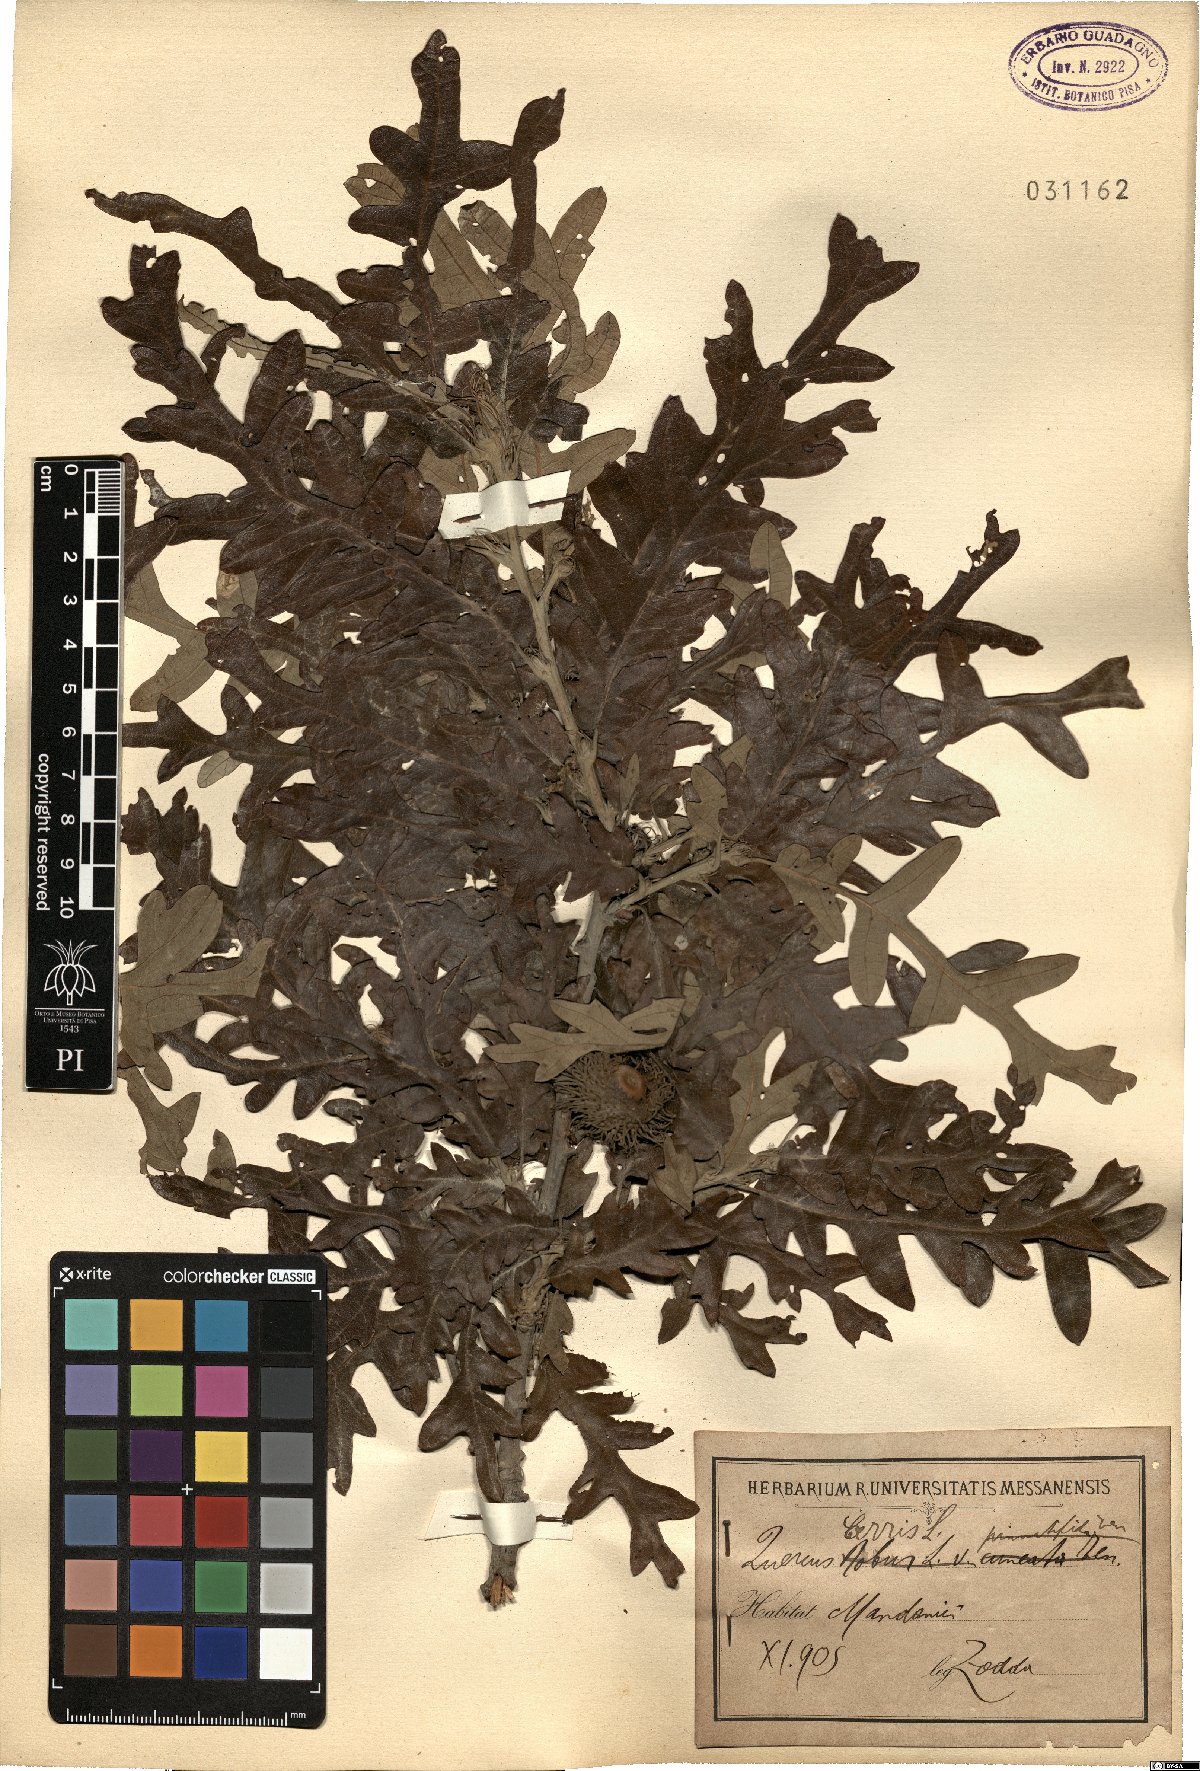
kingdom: Plantae
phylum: Tracheophyta
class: Magnoliopsida
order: Fagales
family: Fagaceae
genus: Quercus
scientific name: Quercus cerris
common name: Turkey oak
